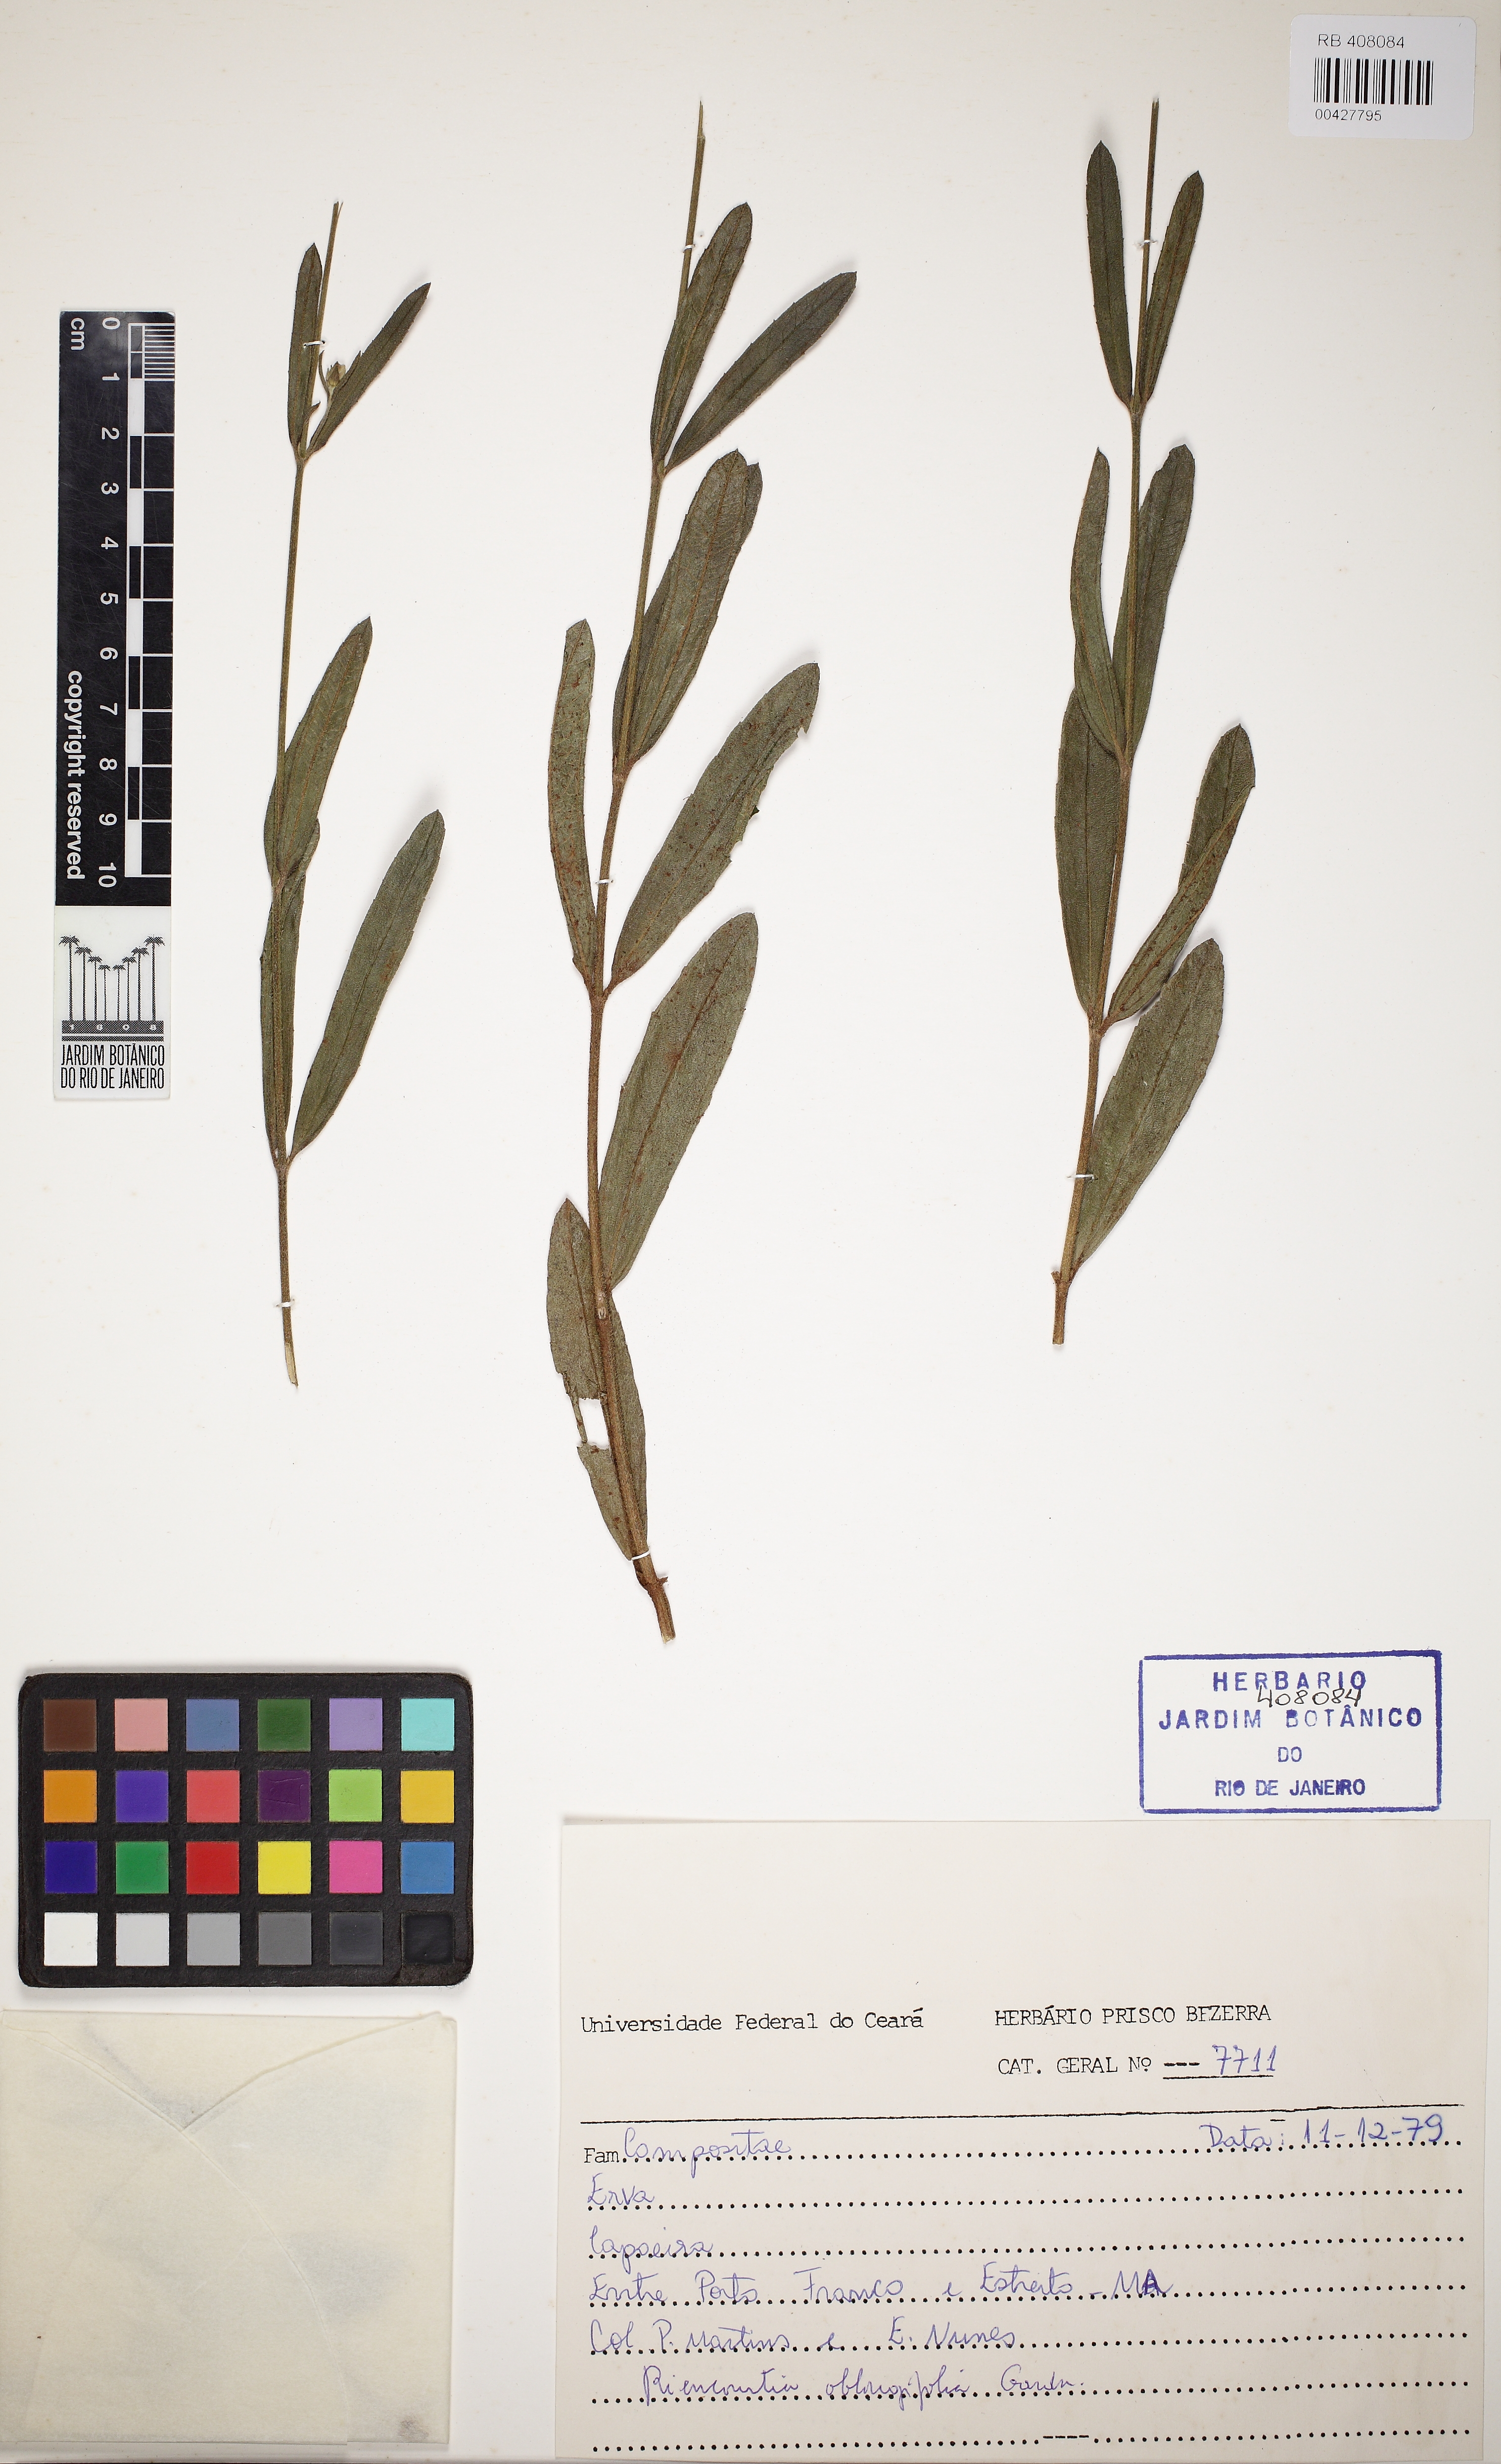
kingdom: Plantae
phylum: Tracheophyta
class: Magnoliopsida
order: Asterales
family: Asteraceae
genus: Riencourtia
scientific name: Riencourtia oblongifolia
